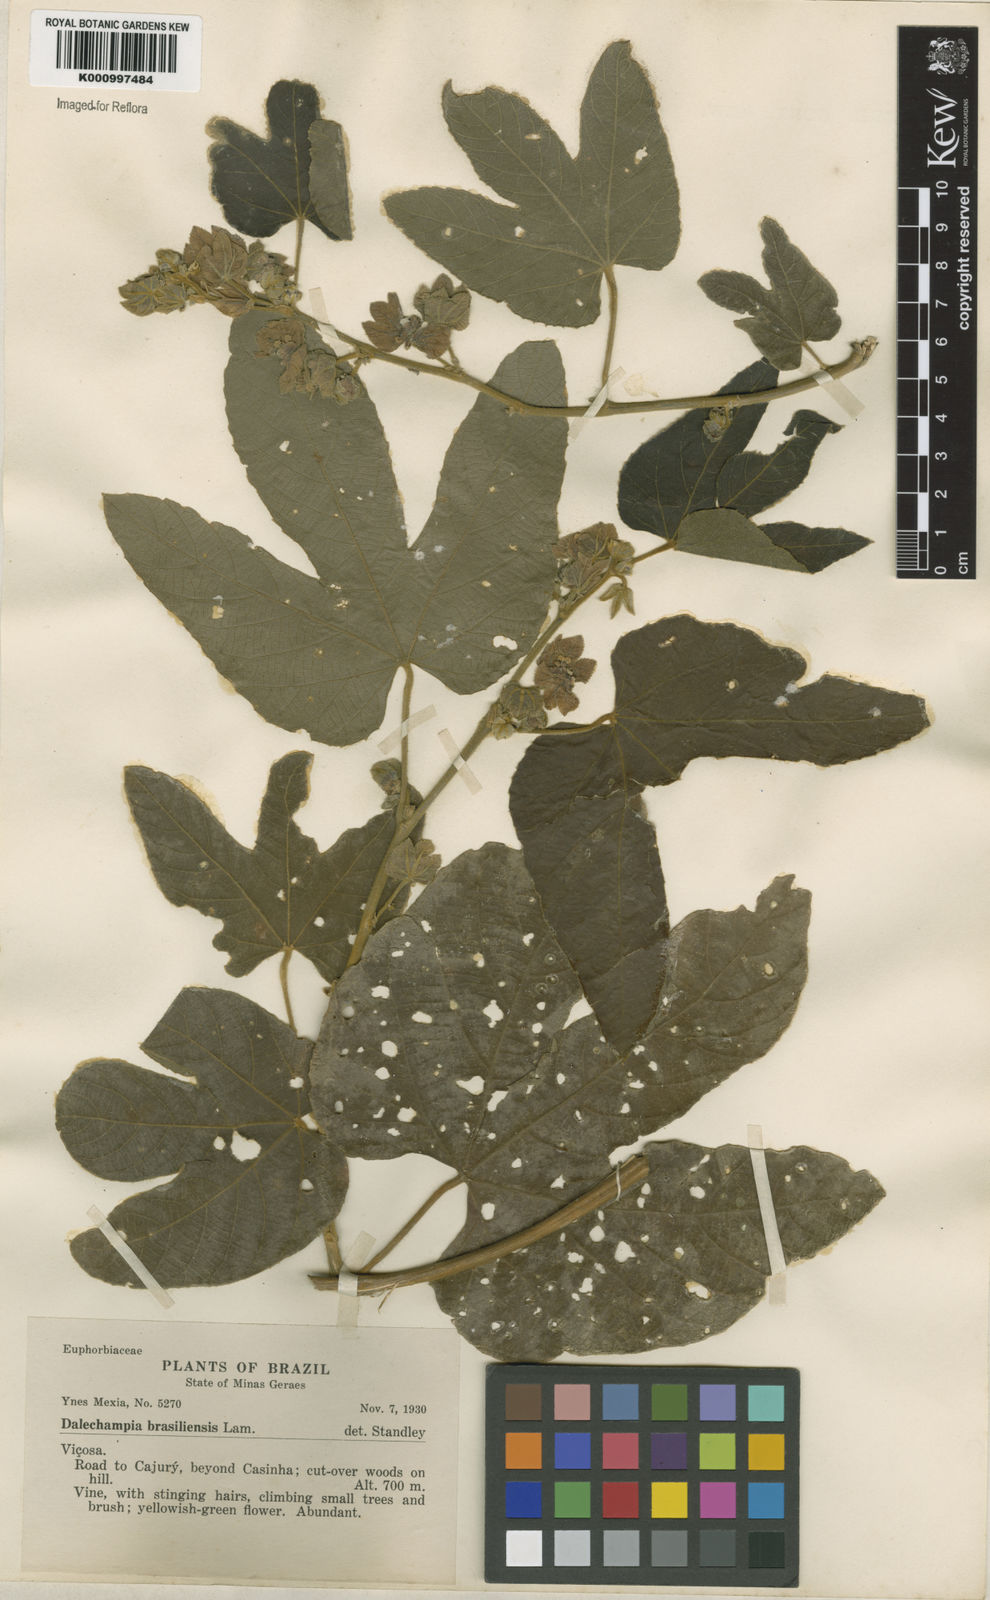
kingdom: Plantae
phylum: Tracheophyta
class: Magnoliopsida
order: Malpighiales
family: Euphorbiaceae
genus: Dalechampia
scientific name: Dalechampia brasiliensis
